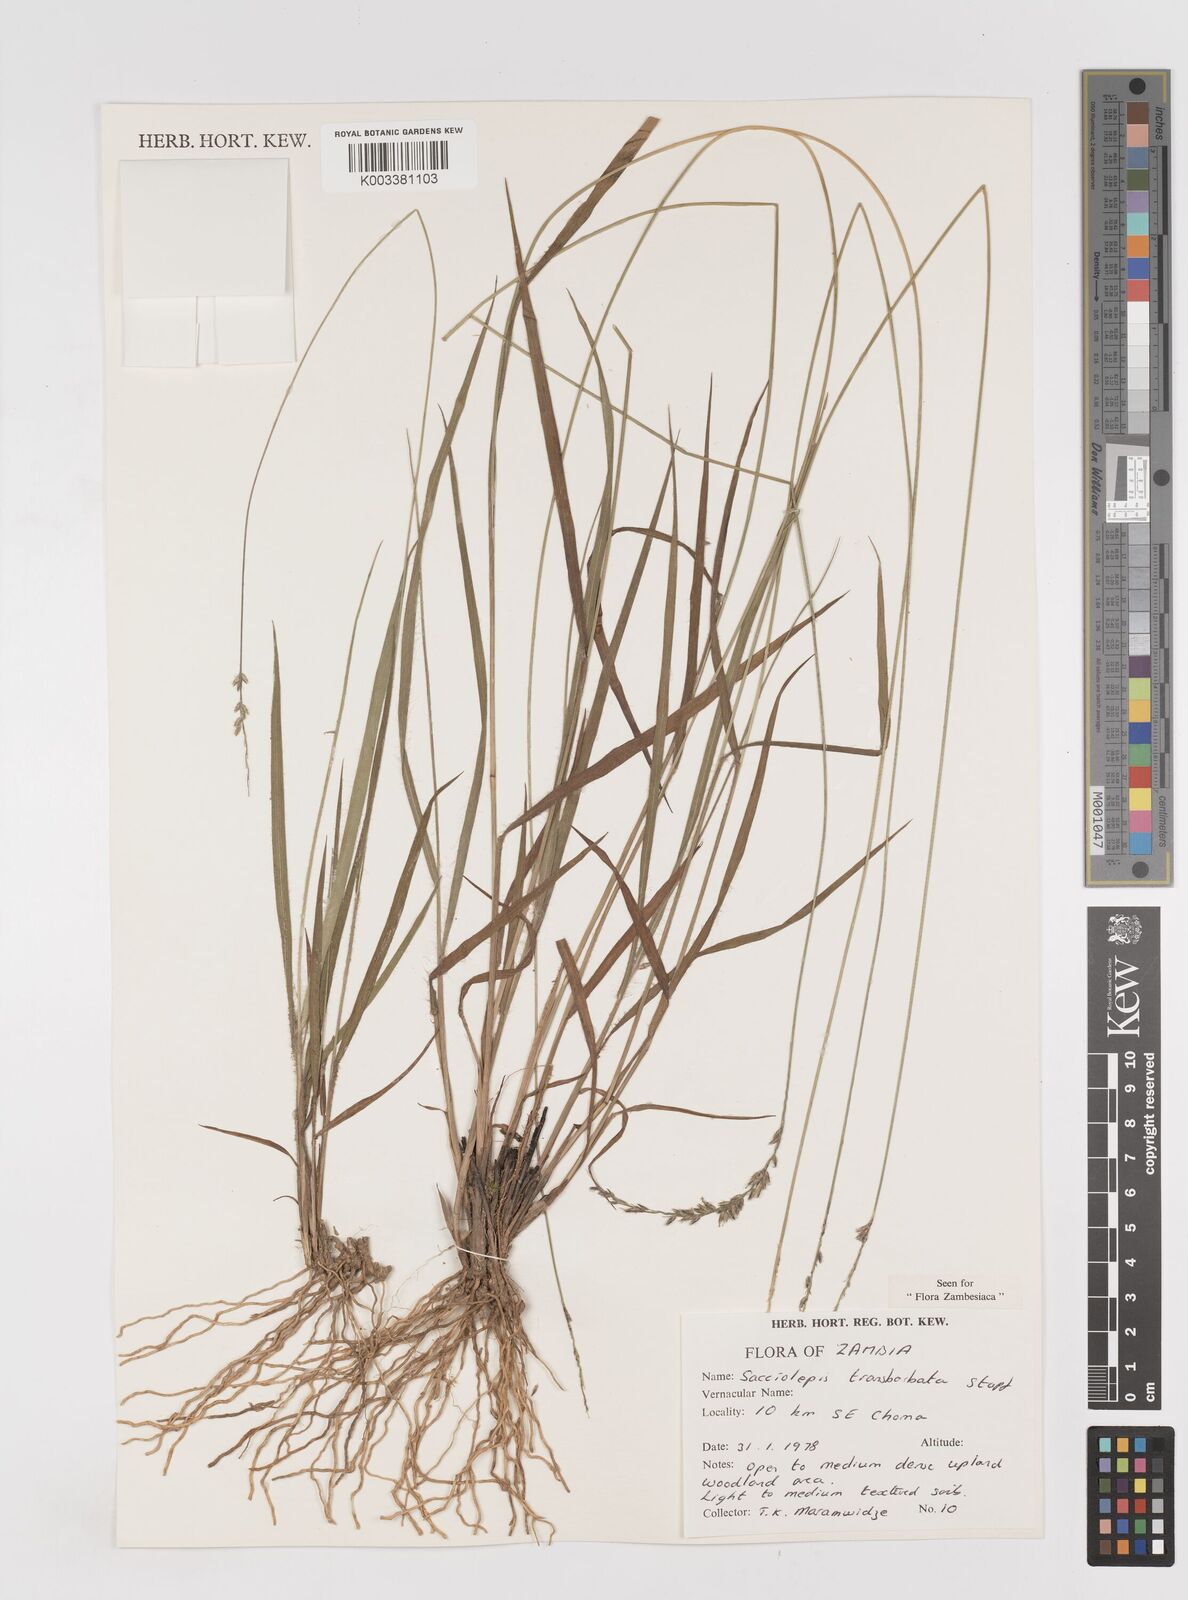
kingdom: Plantae
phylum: Tracheophyta
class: Liliopsida
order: Poales
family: Poaceae
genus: Sacciolepis
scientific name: Sacciolepis transbarbata
